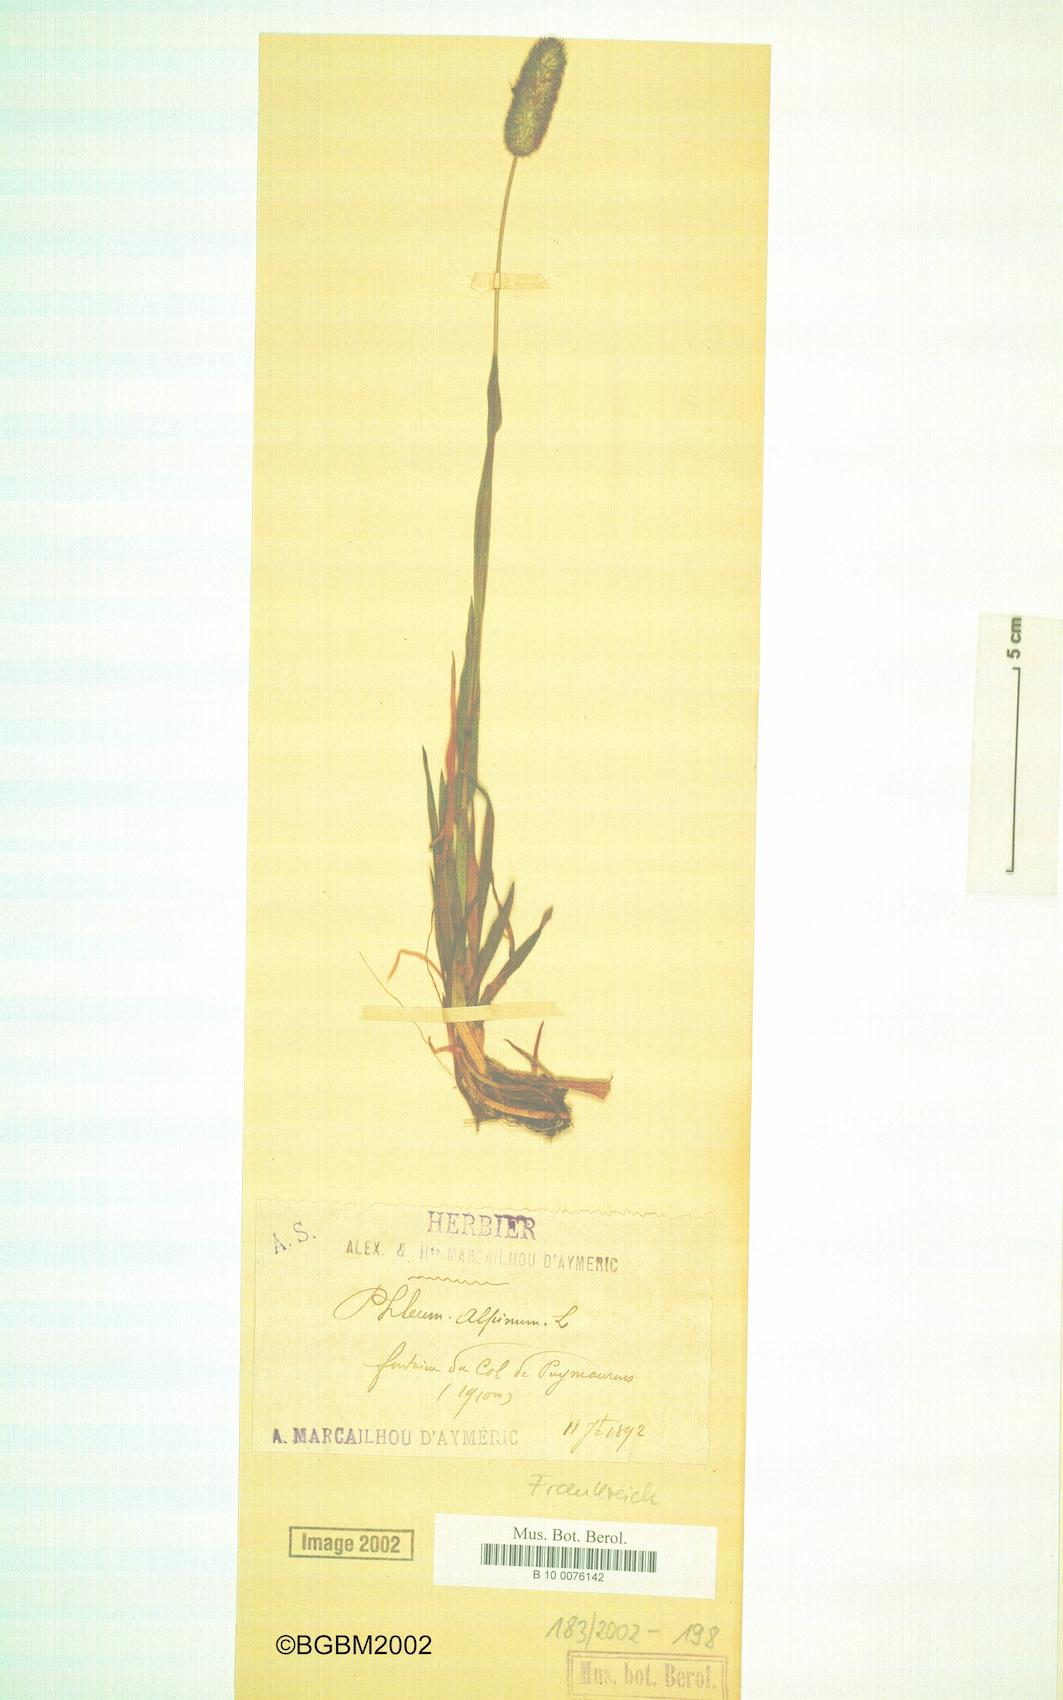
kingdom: Plantae
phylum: Tracheophyta
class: Liliopsida
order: Poales
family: Poaceae
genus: Phleum
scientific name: Phleum alpinum
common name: Alpine cat's-tail
